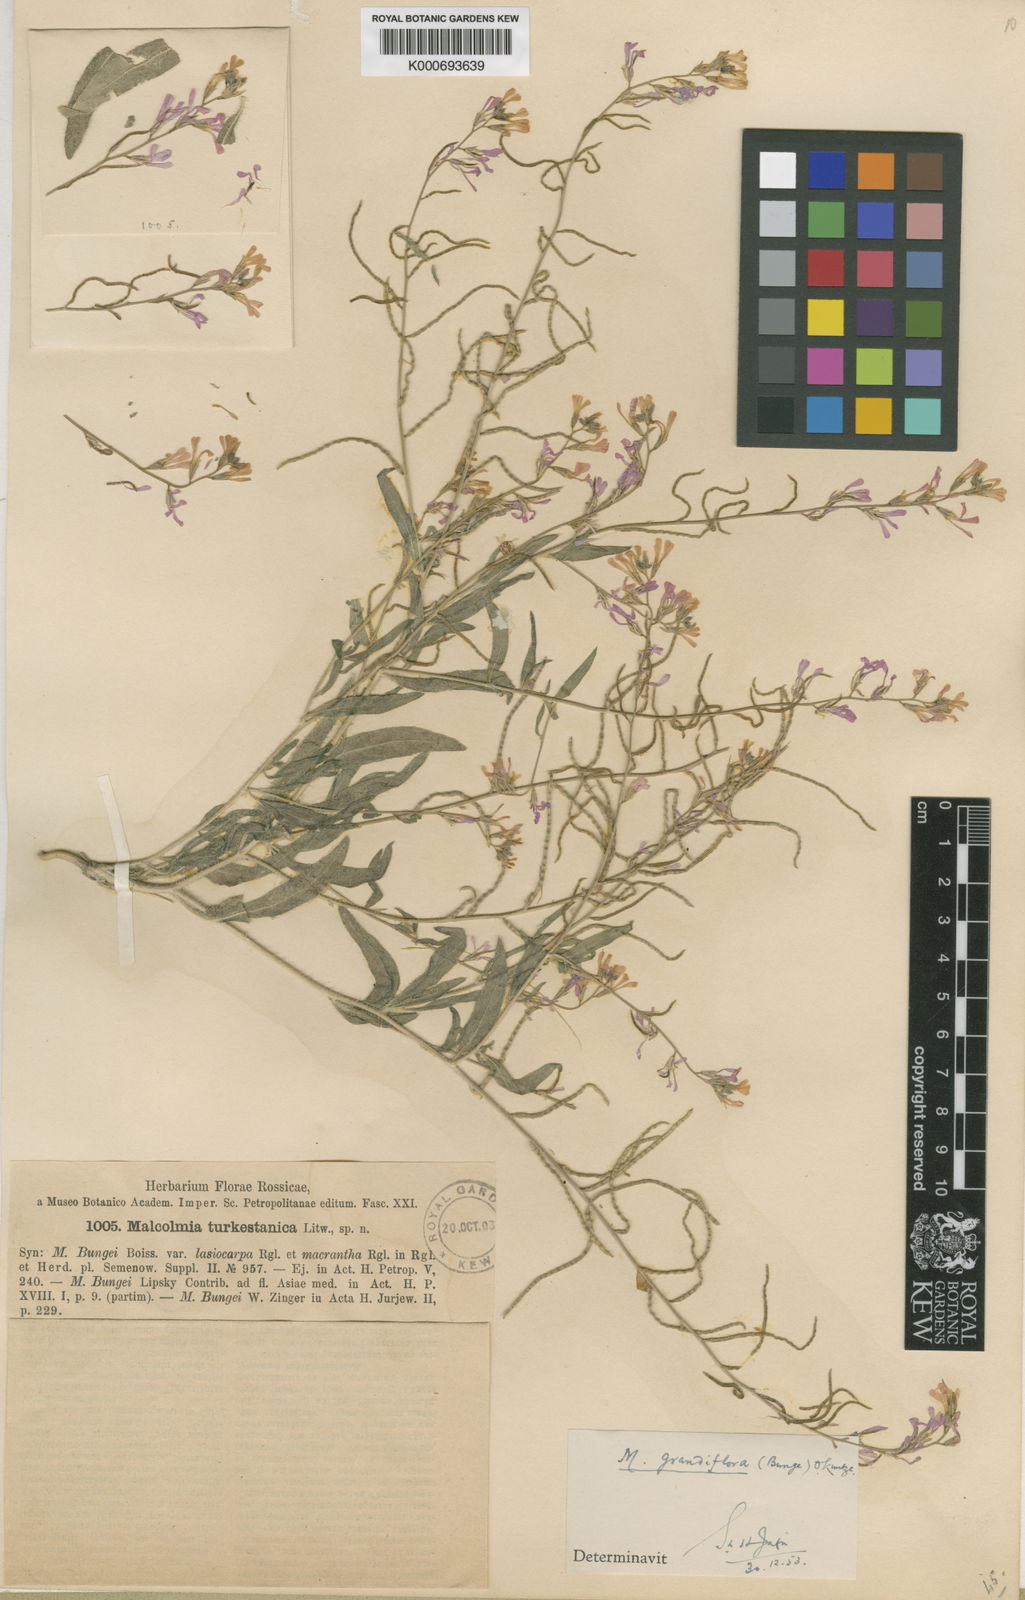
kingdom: Plantae
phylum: Tracheophyta
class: Magnoliopsida
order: Brassicales
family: Brassicaceae
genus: Strigosella
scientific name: Strigosella turkestanica
